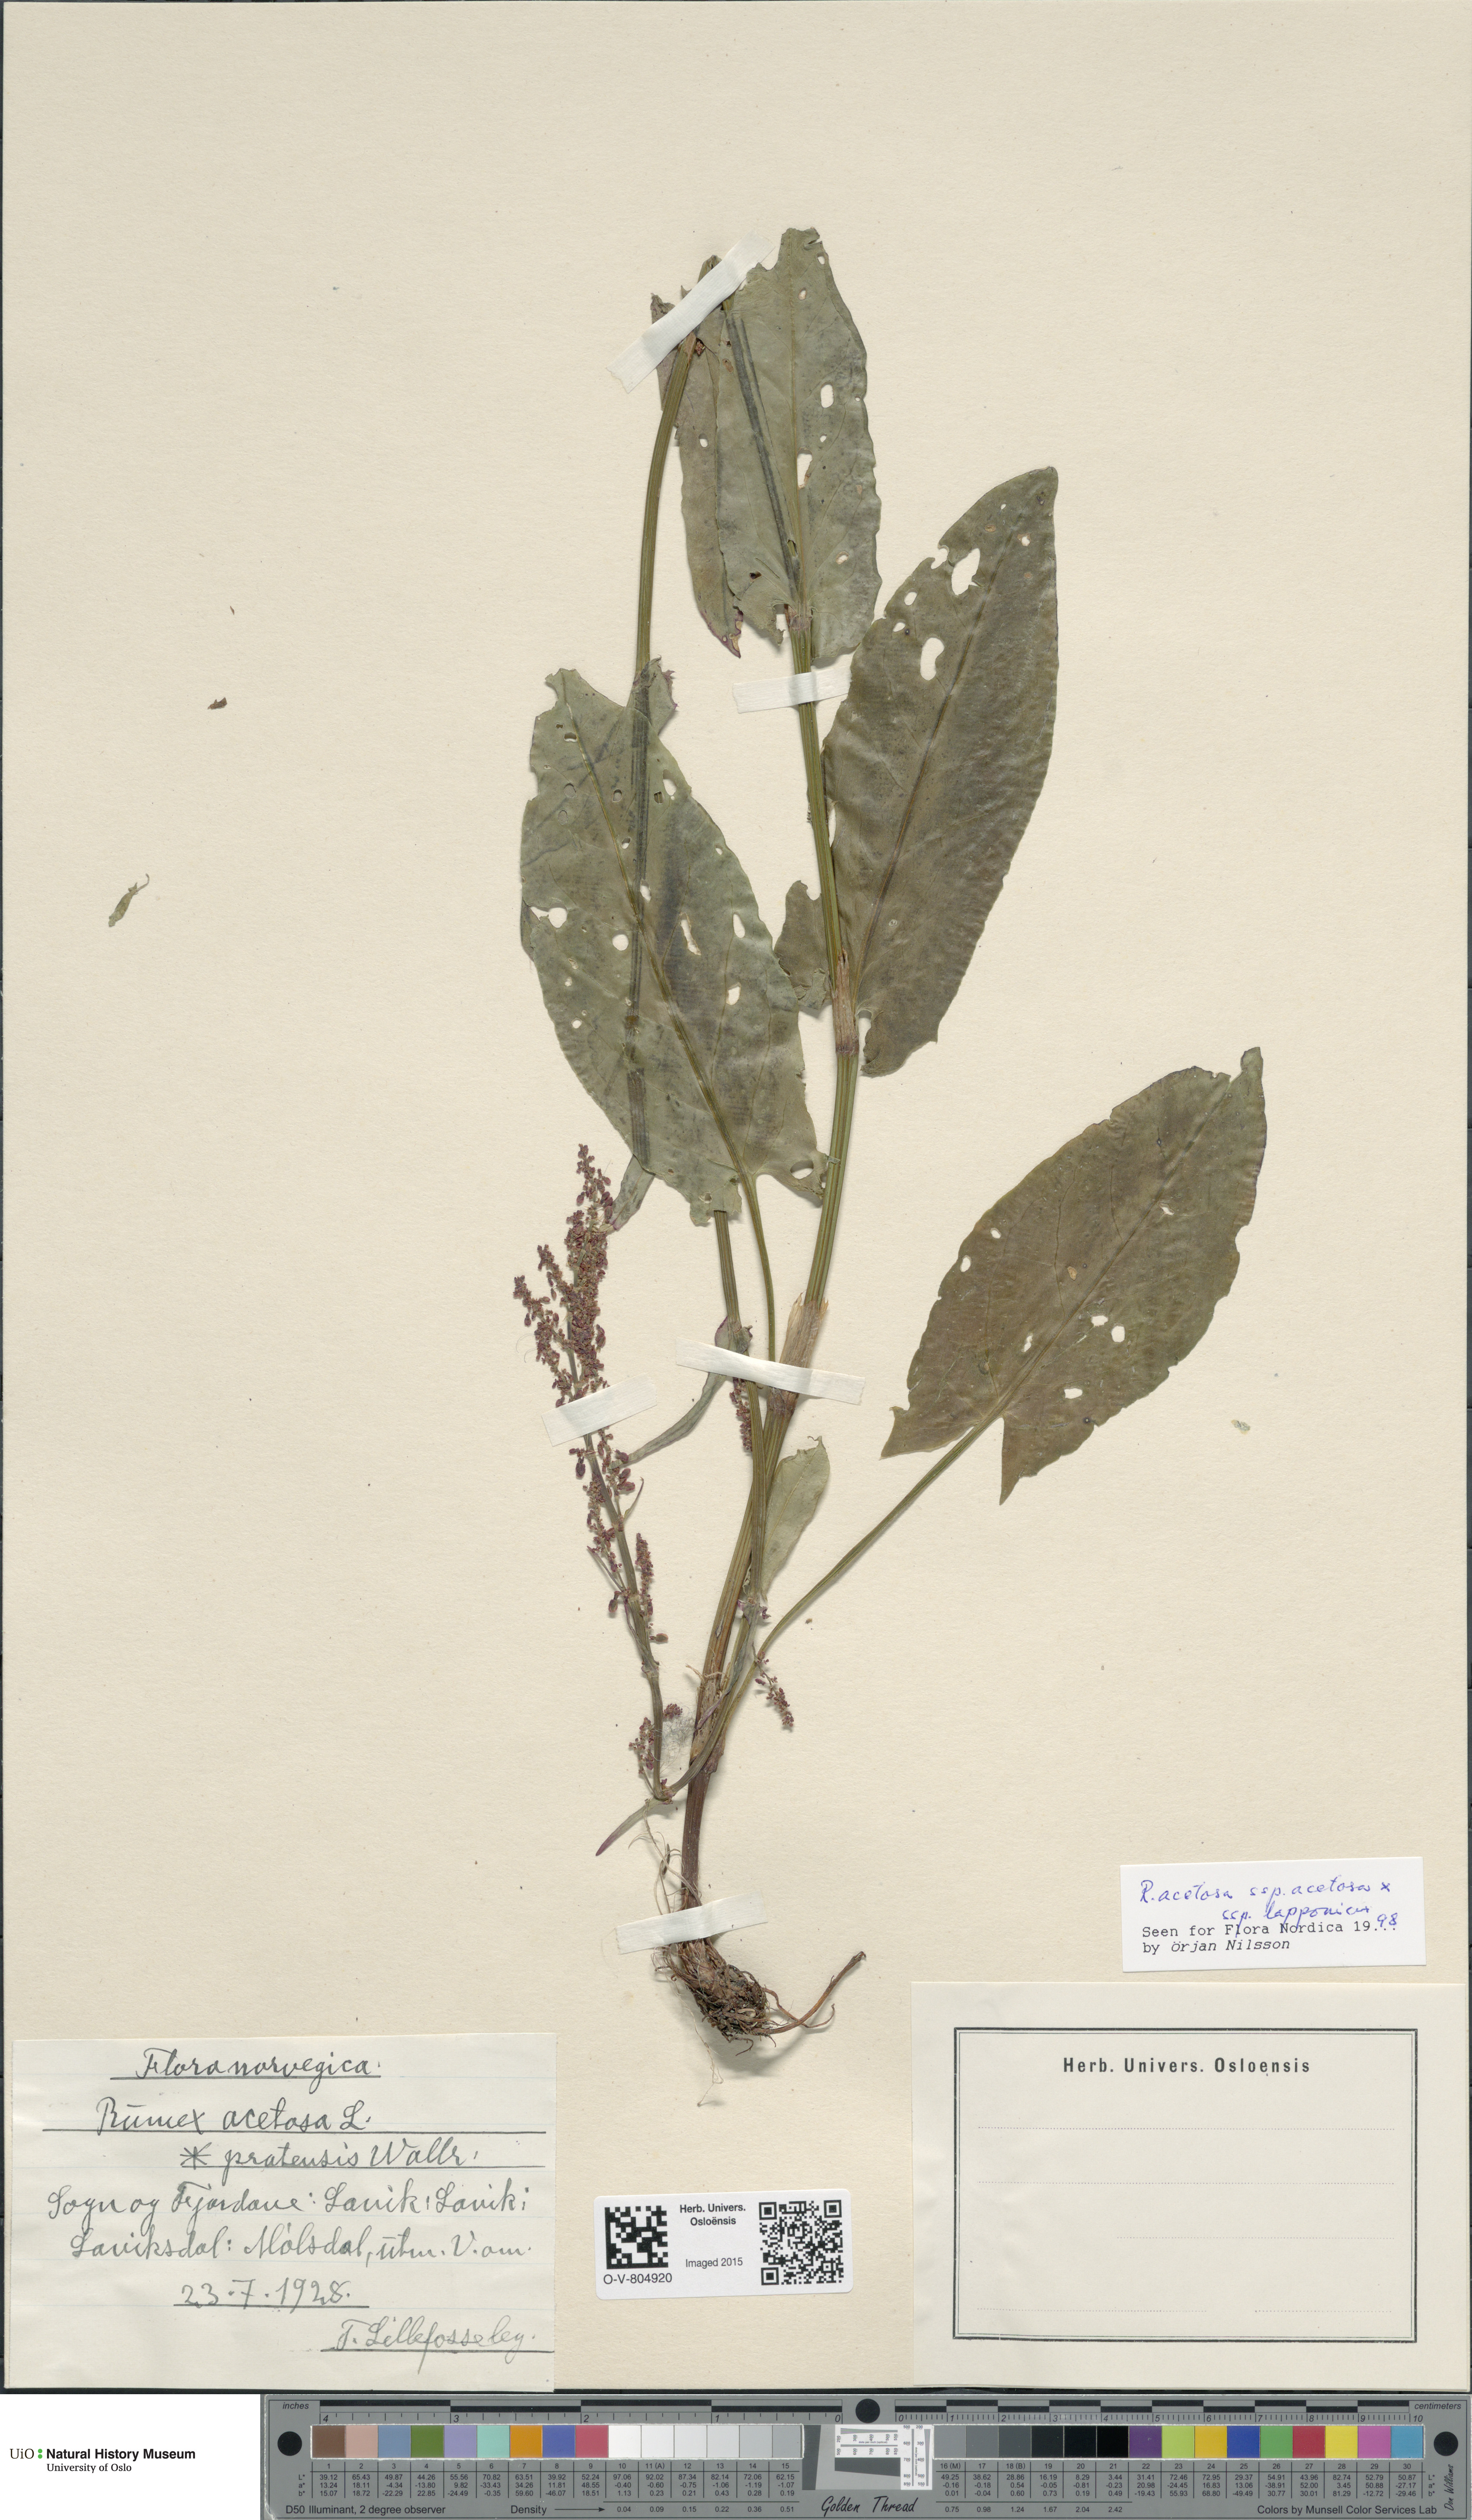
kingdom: Plantae
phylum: Tracheophyta
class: Magnoliopsida
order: Caryophyllales
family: Polygonaceae
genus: Rumex
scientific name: Rumex
